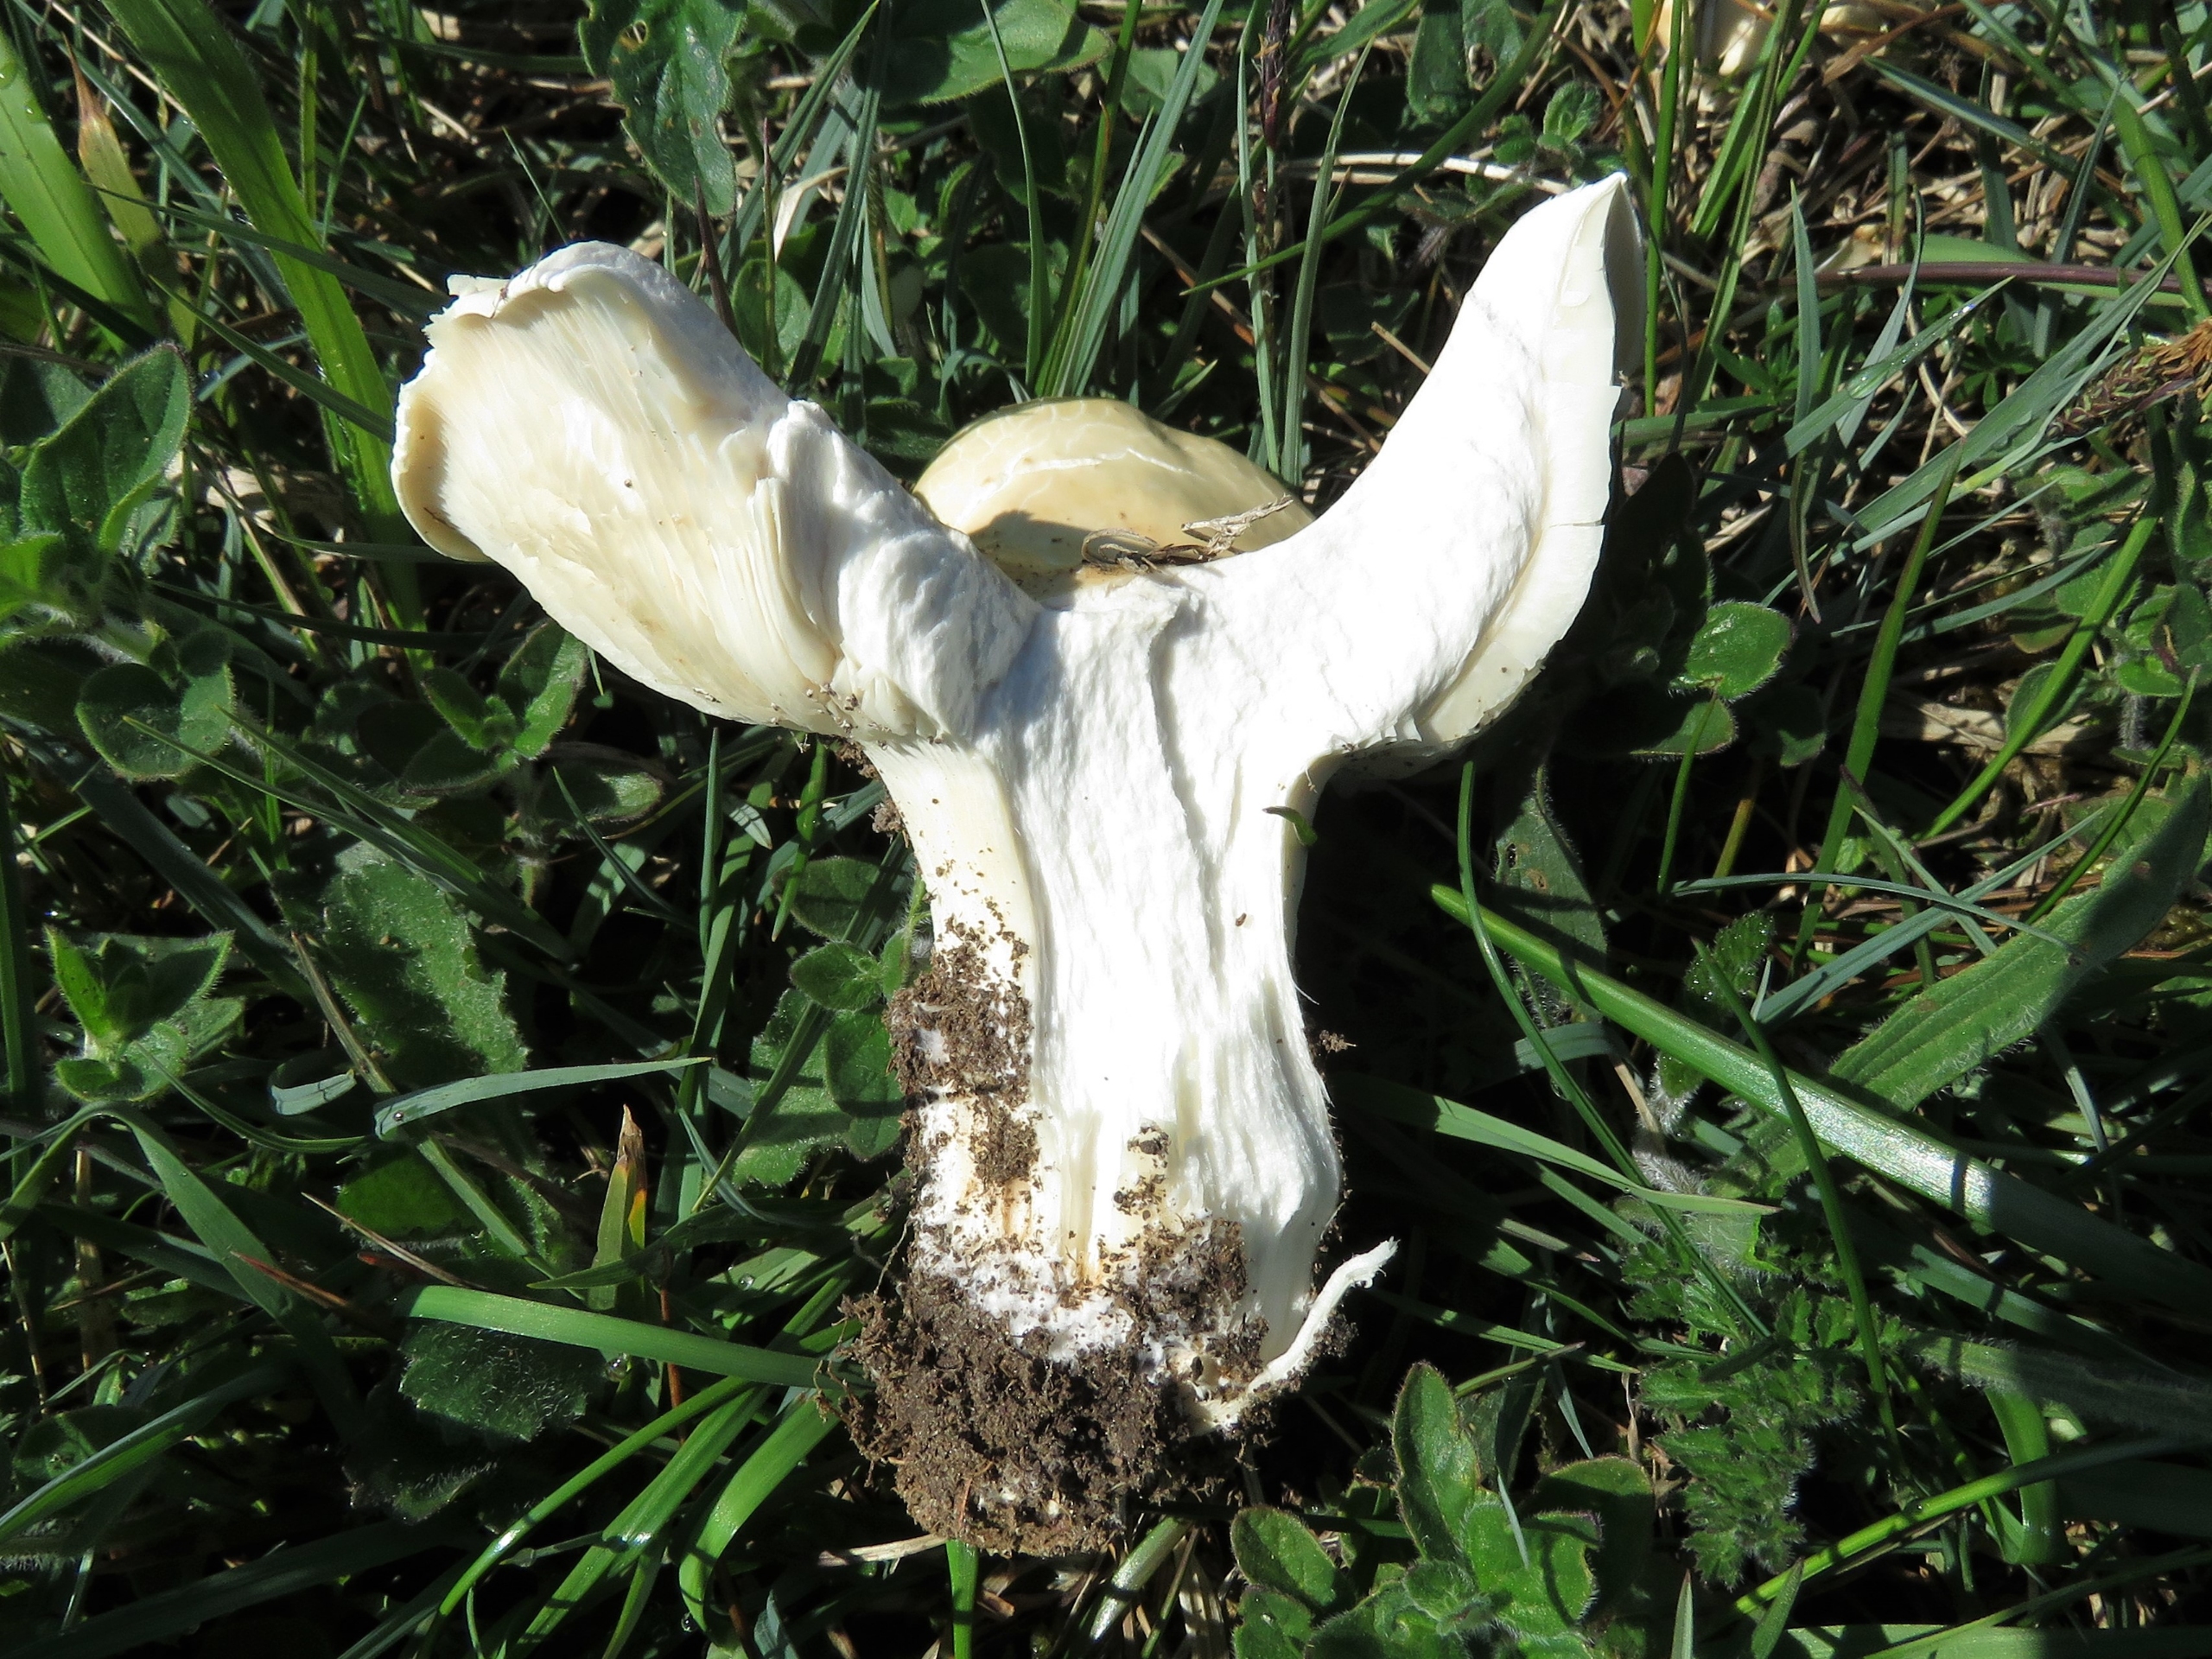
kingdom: Fungi
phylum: Basidiomycota
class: Agaricomycetes
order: Agaricales
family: Lyophyllaceae
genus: Calocybe
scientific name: Calocybe gambosa
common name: Vårmusseron
